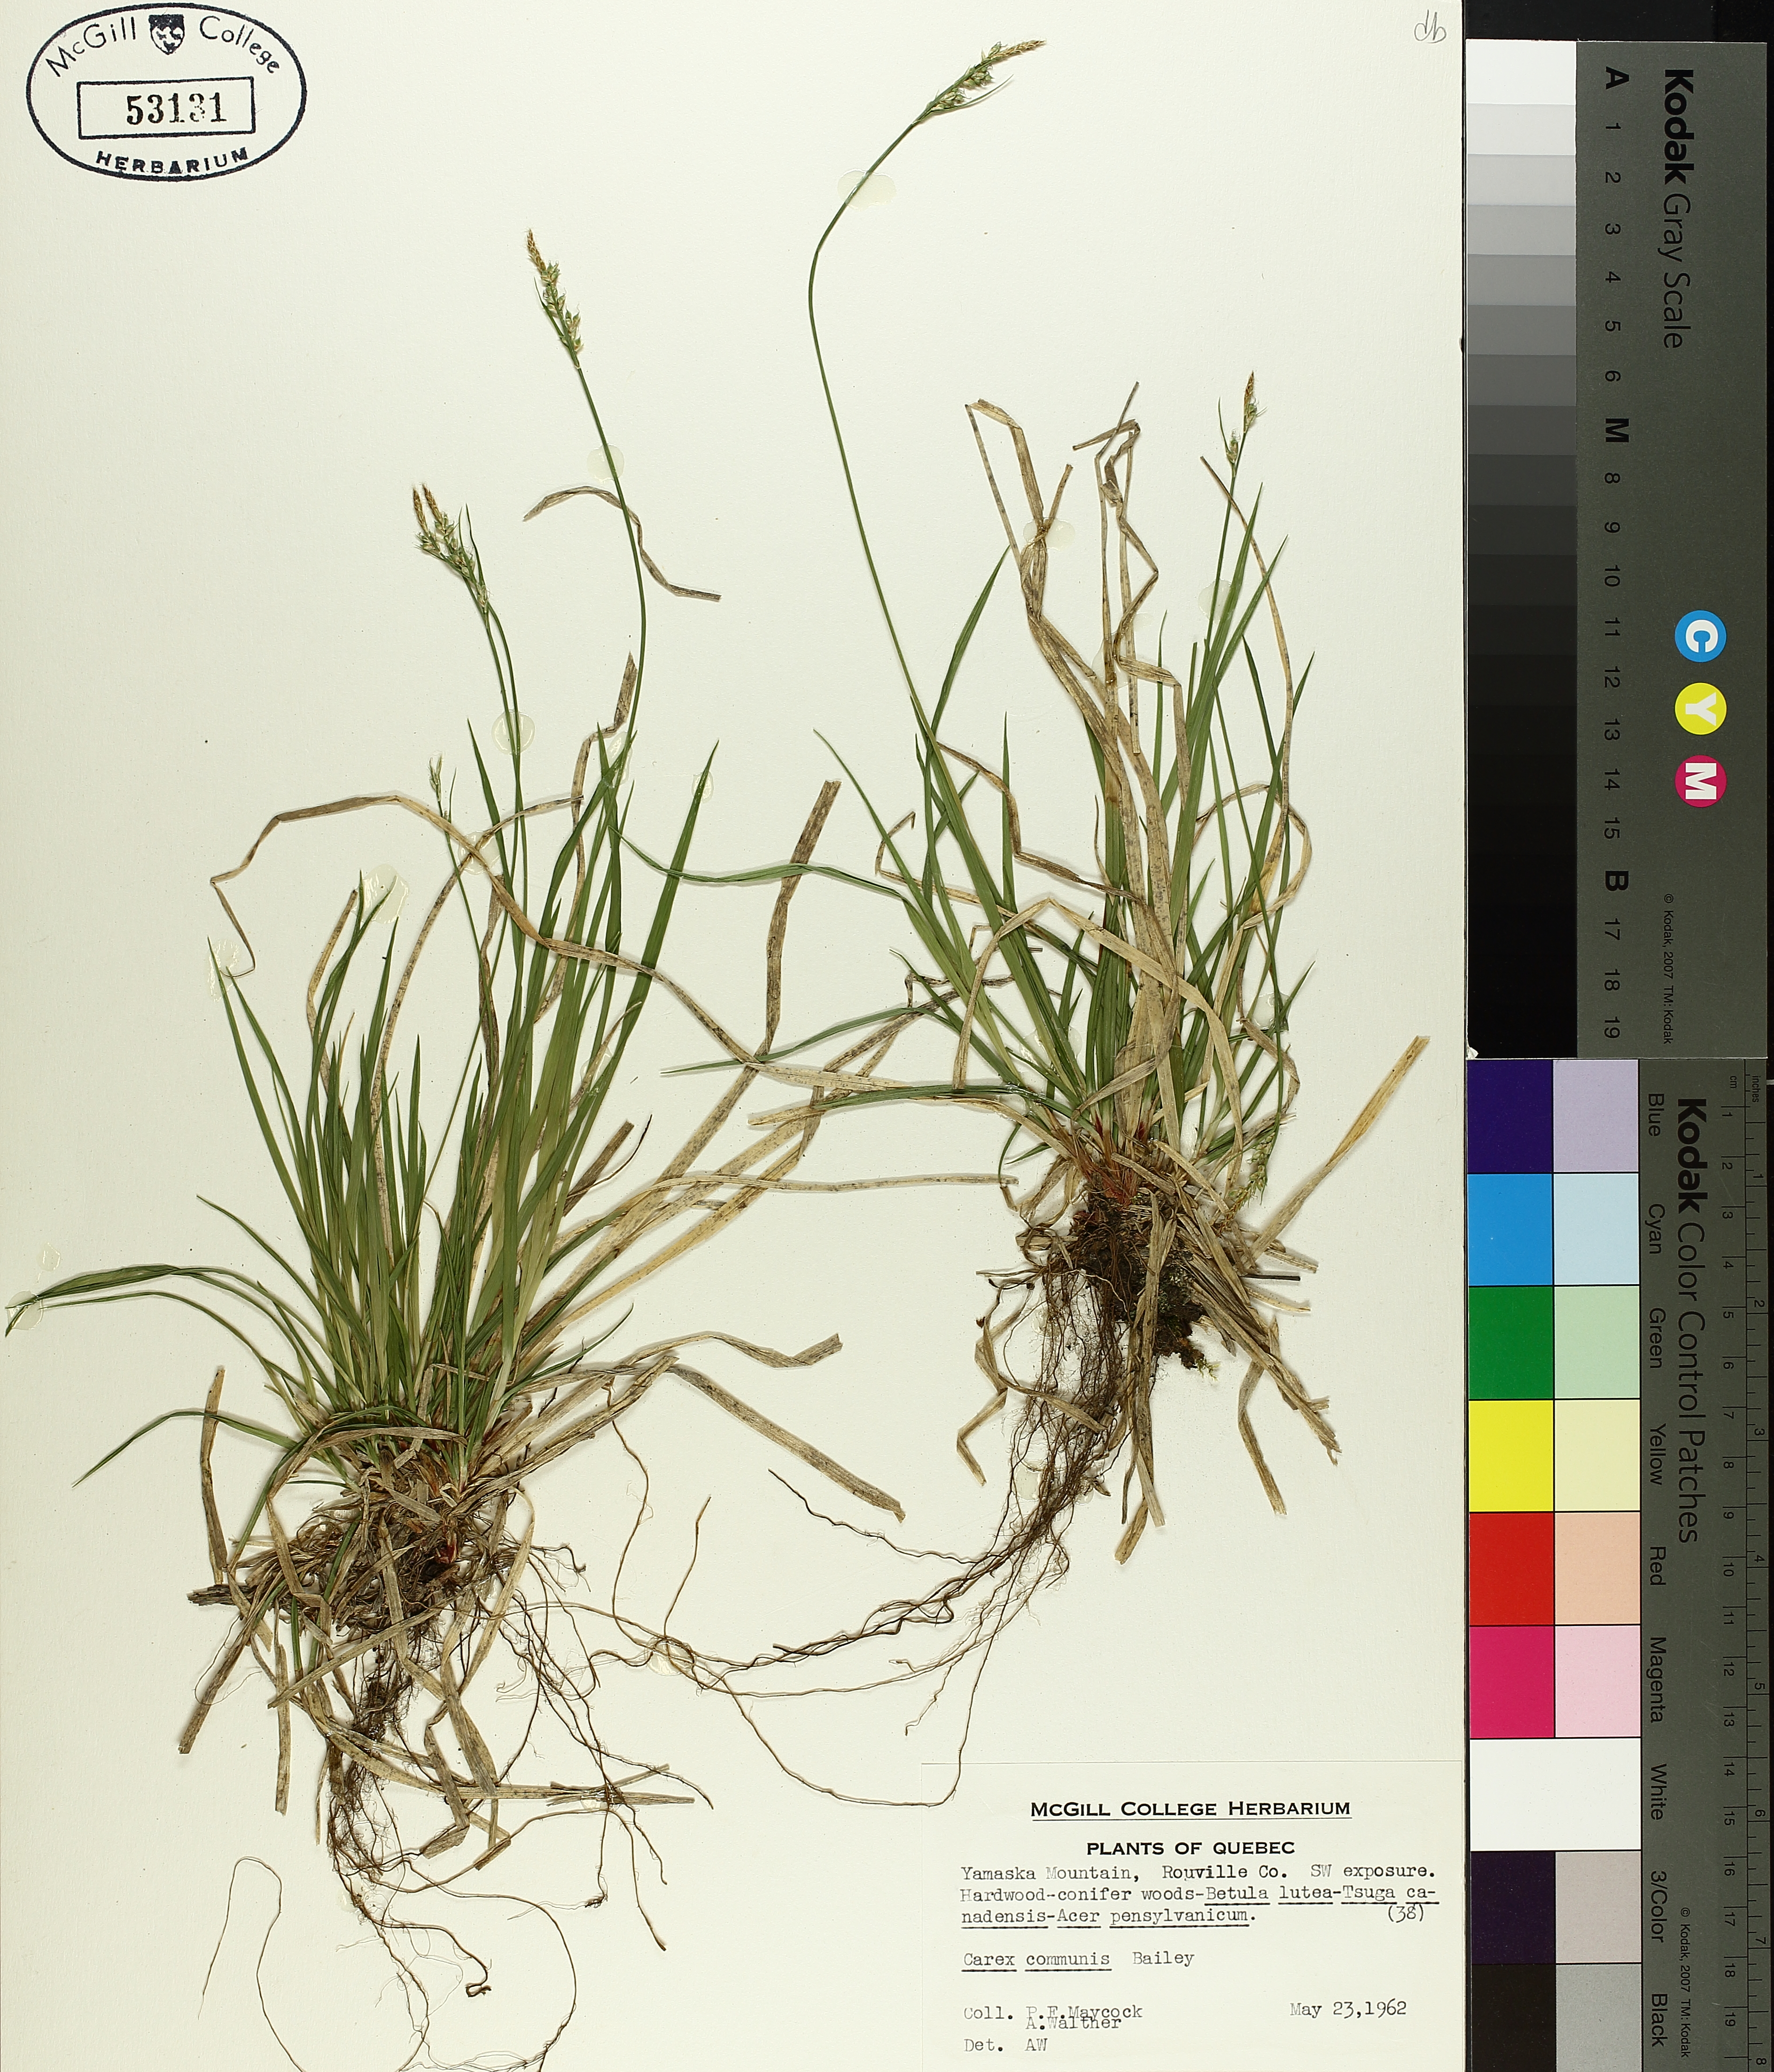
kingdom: Plantae
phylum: Tracheophyta
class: Liliopsida
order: Poales
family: Cyperaceae
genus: Carex
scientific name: Carex communis
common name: Colonial oak sedge
